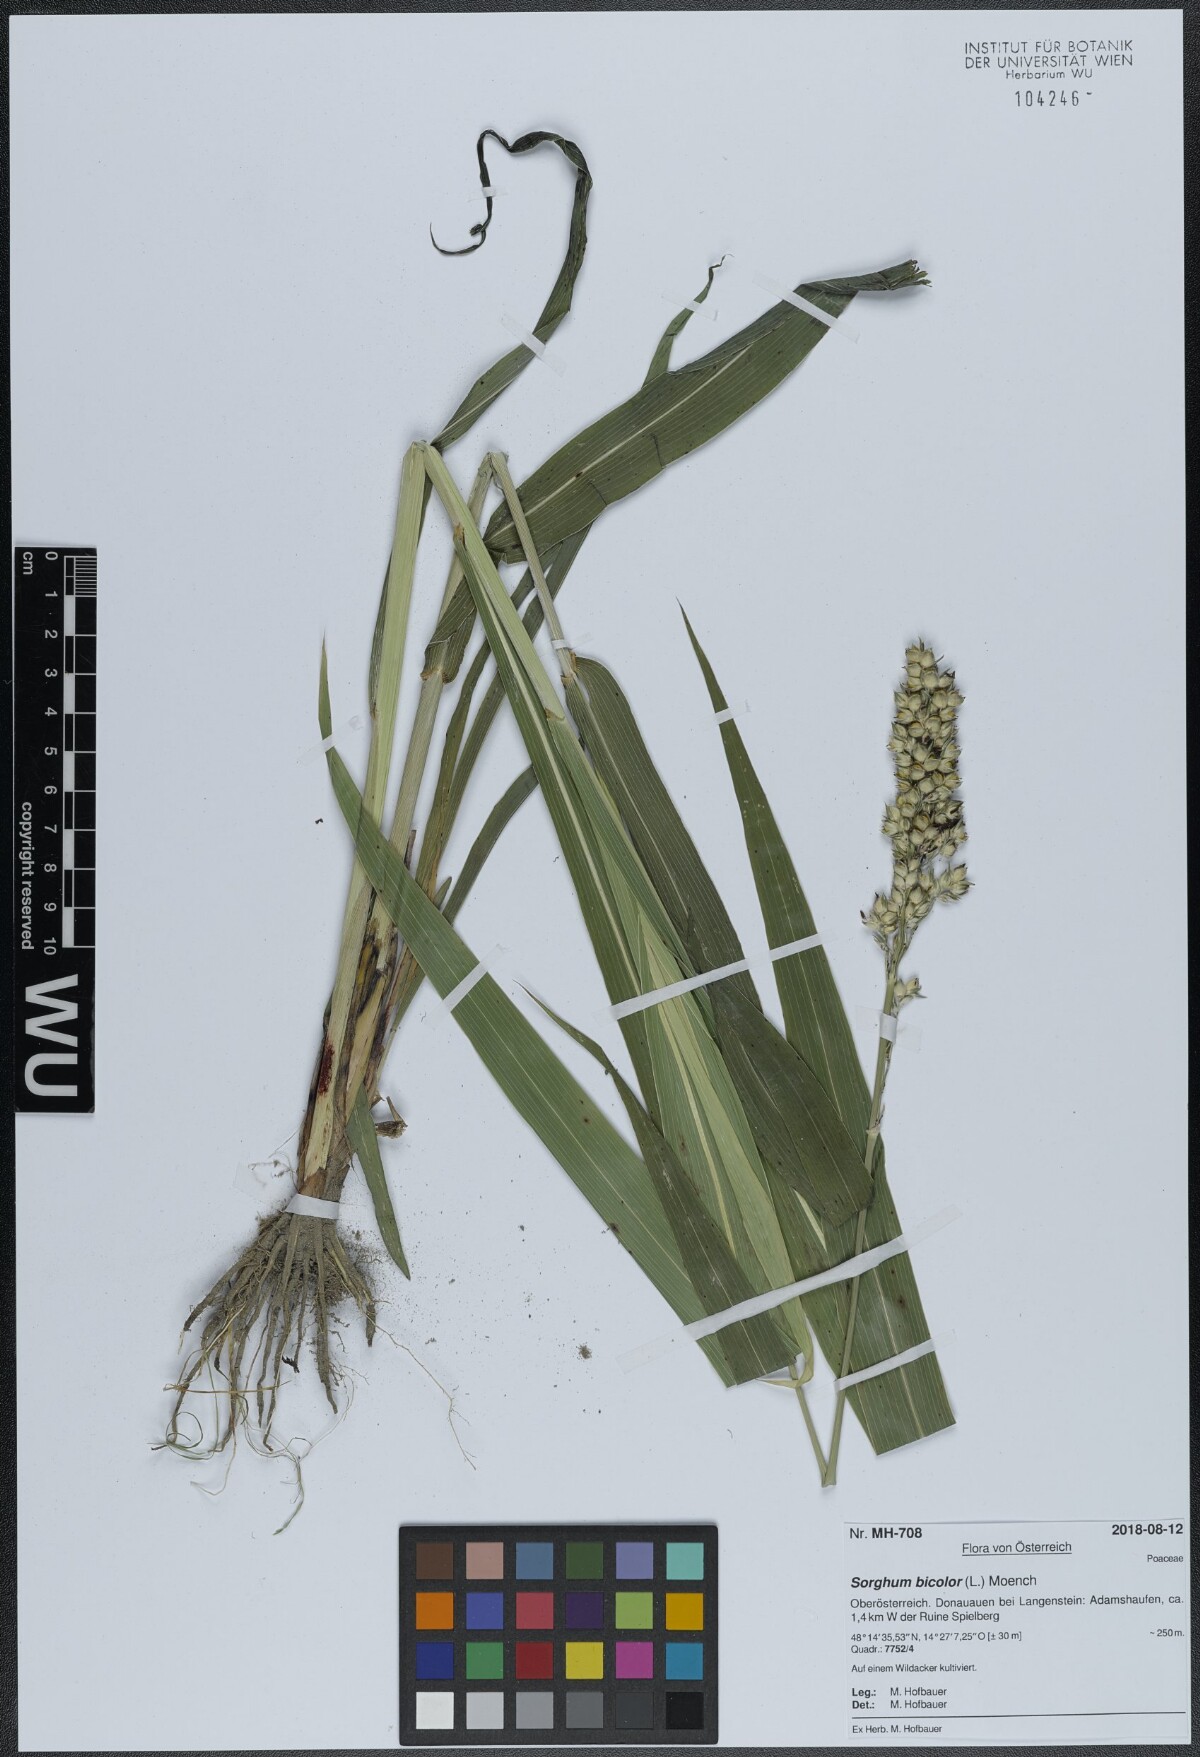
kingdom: Plantae
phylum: Tracheophyta
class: Liliopsida
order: Poales
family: Poaceae
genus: Sorghum
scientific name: Sorghum bicolor
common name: Sorghum
